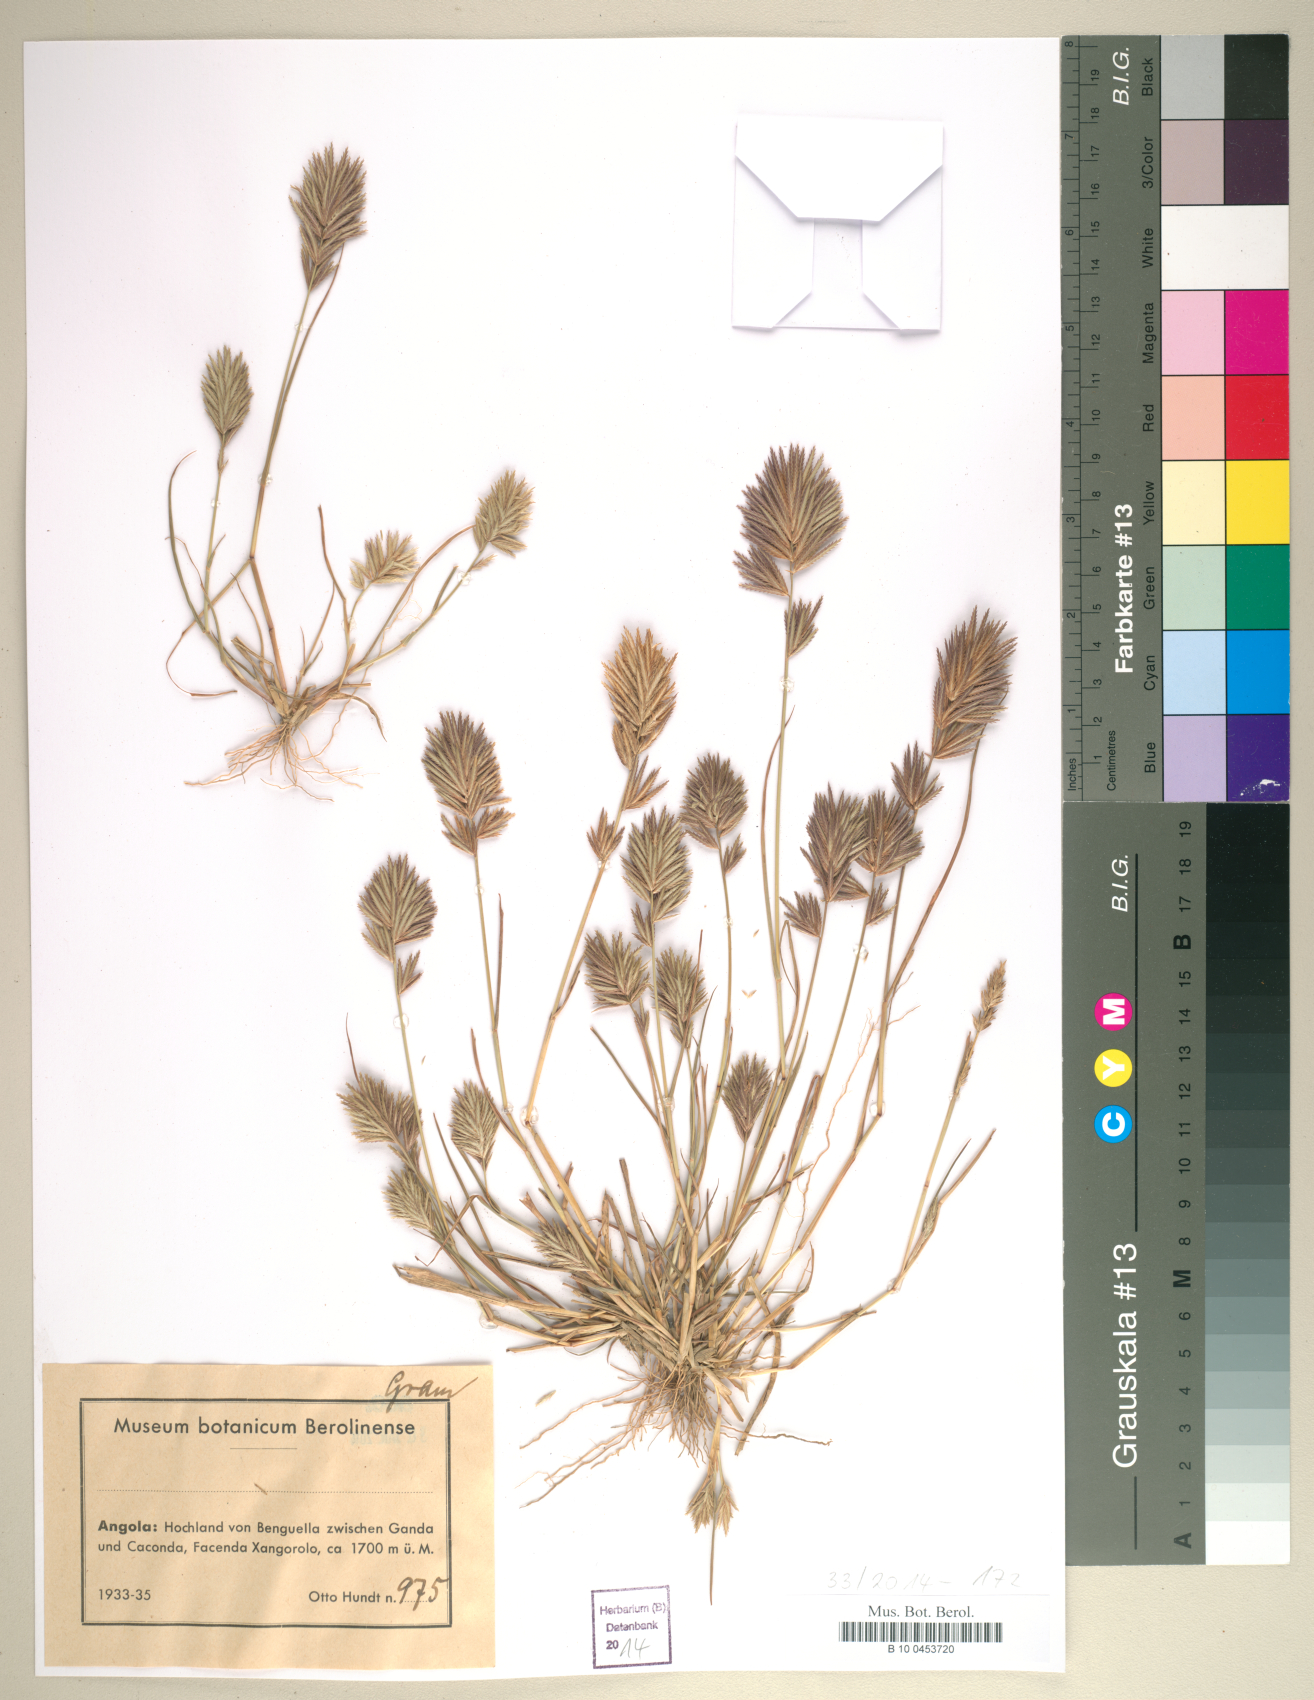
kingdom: Plantae
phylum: Tracheophyta
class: Liliopsida
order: Poales
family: Poaceae
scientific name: Poaceae
